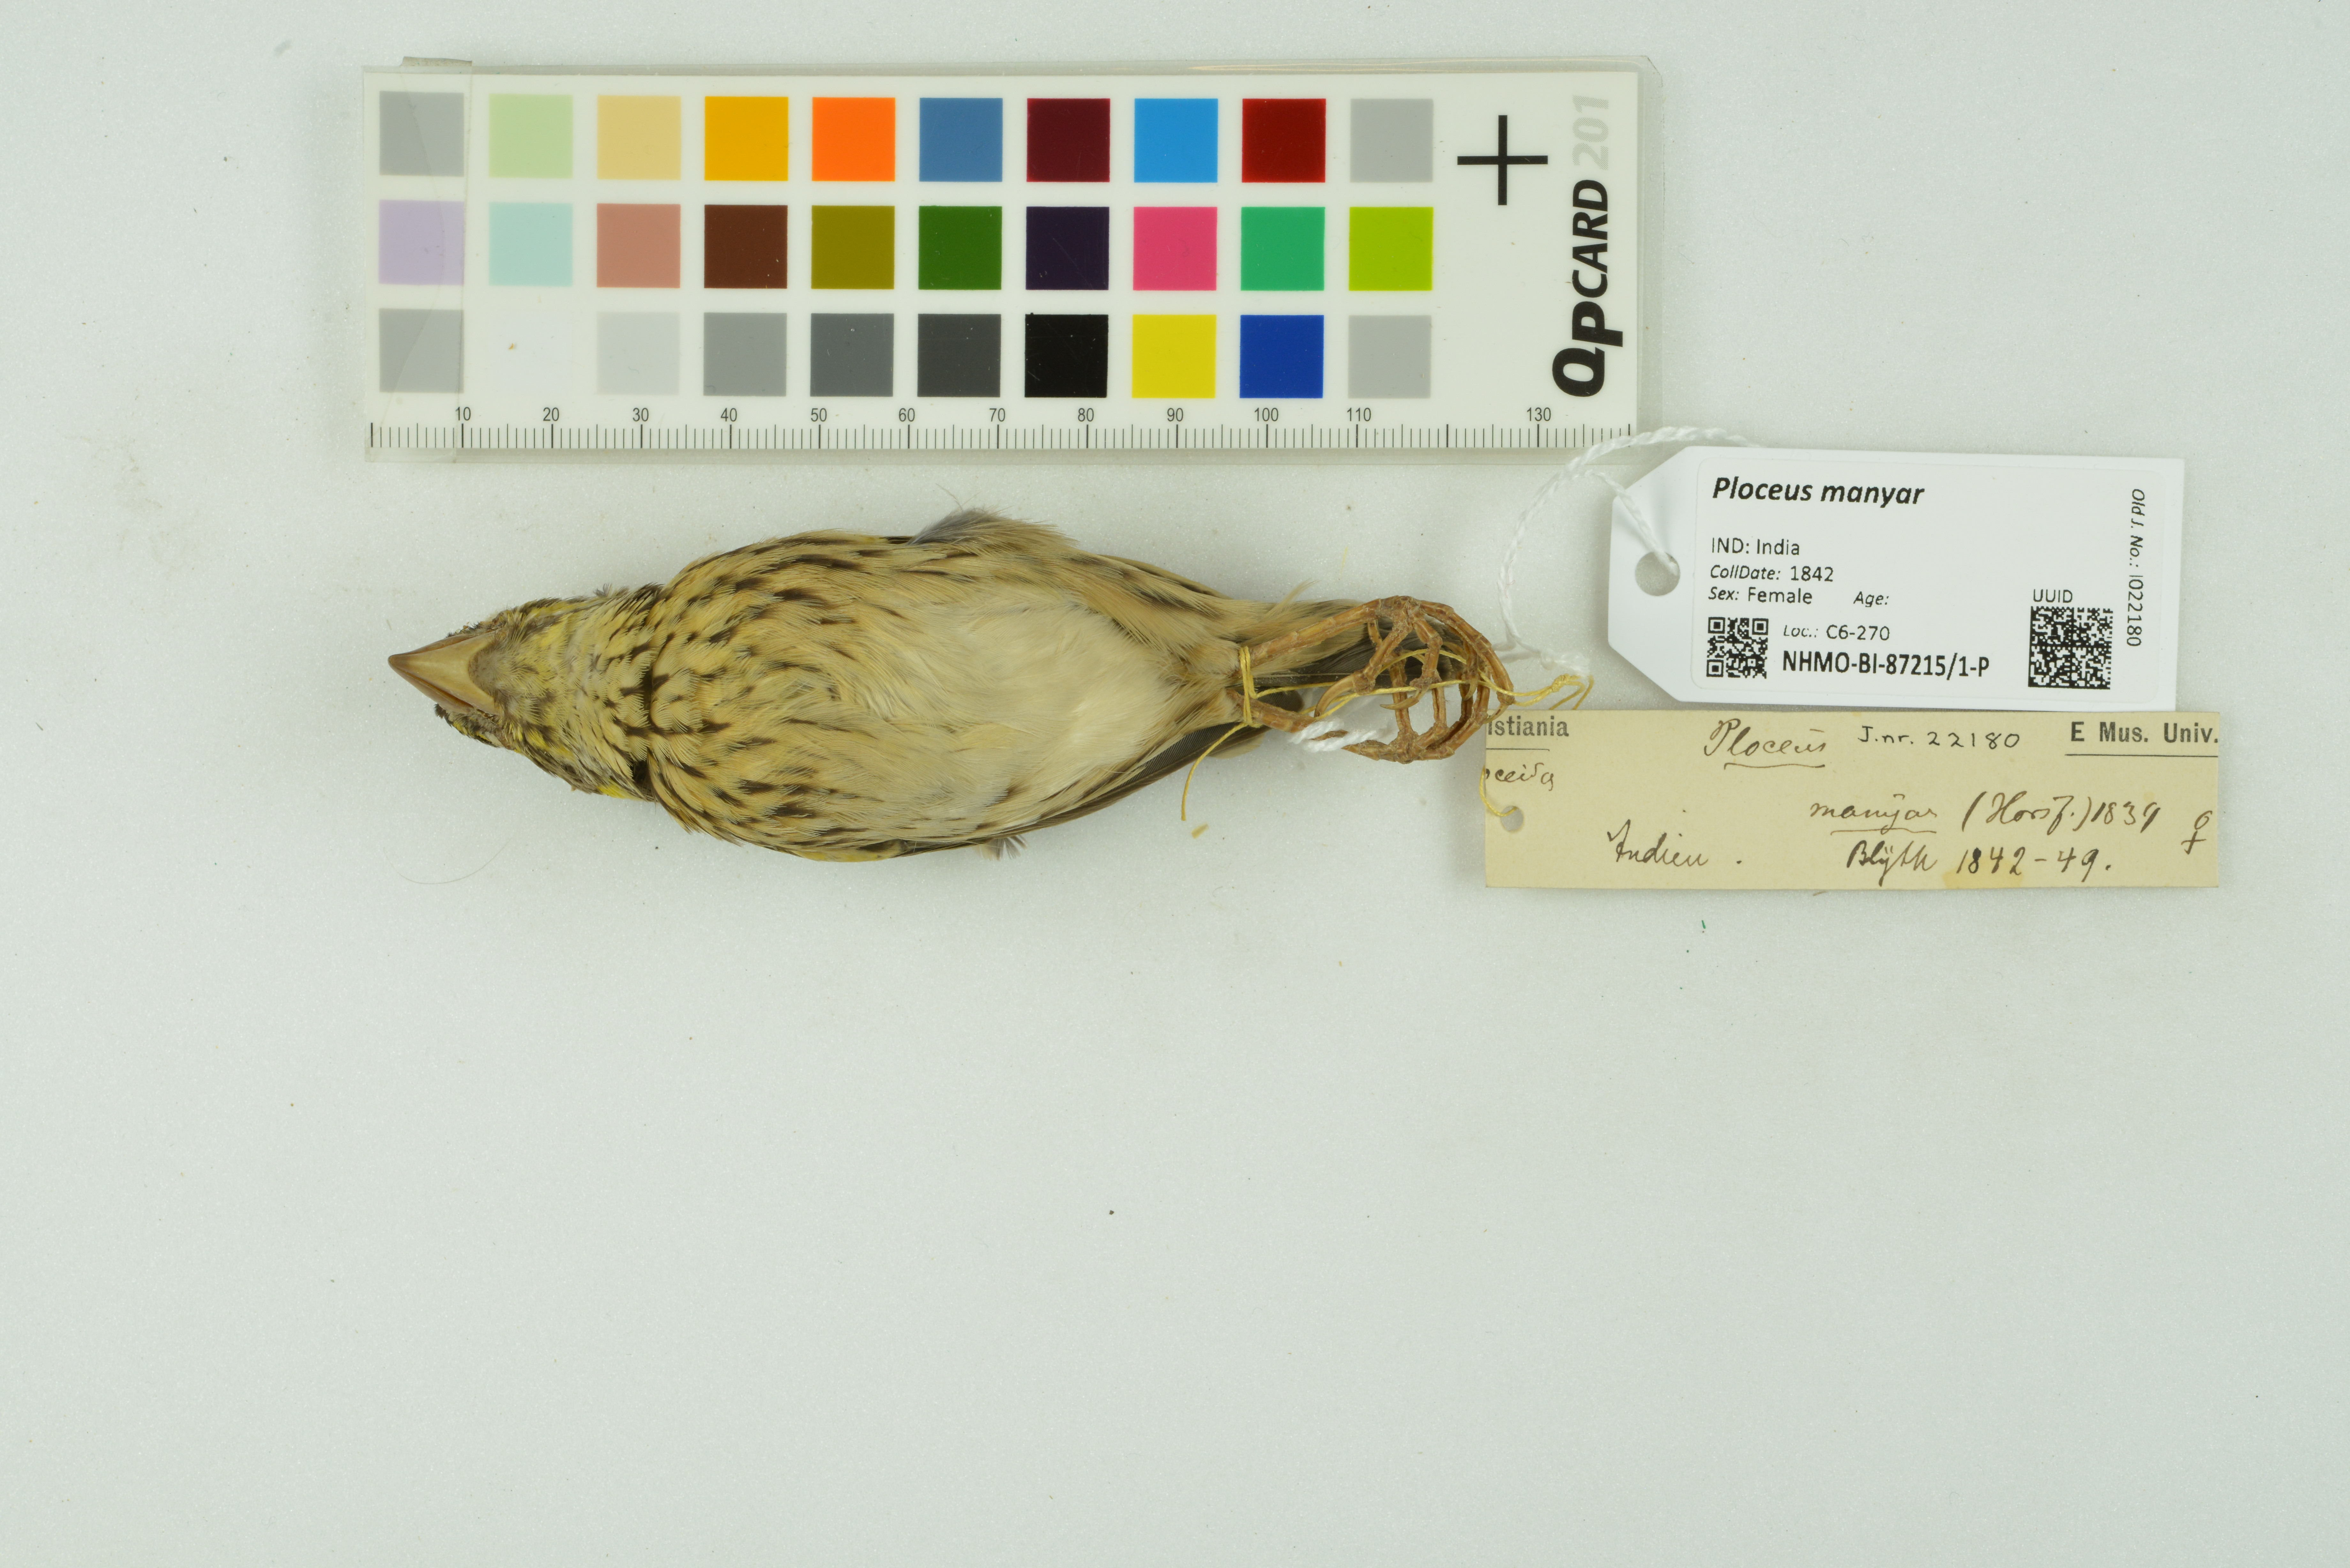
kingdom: Animalia
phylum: Chordata
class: Aves
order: Passeriformes
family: Ploceidae
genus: Ploceus
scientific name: Ploceus manyar
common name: Streaked weaver
